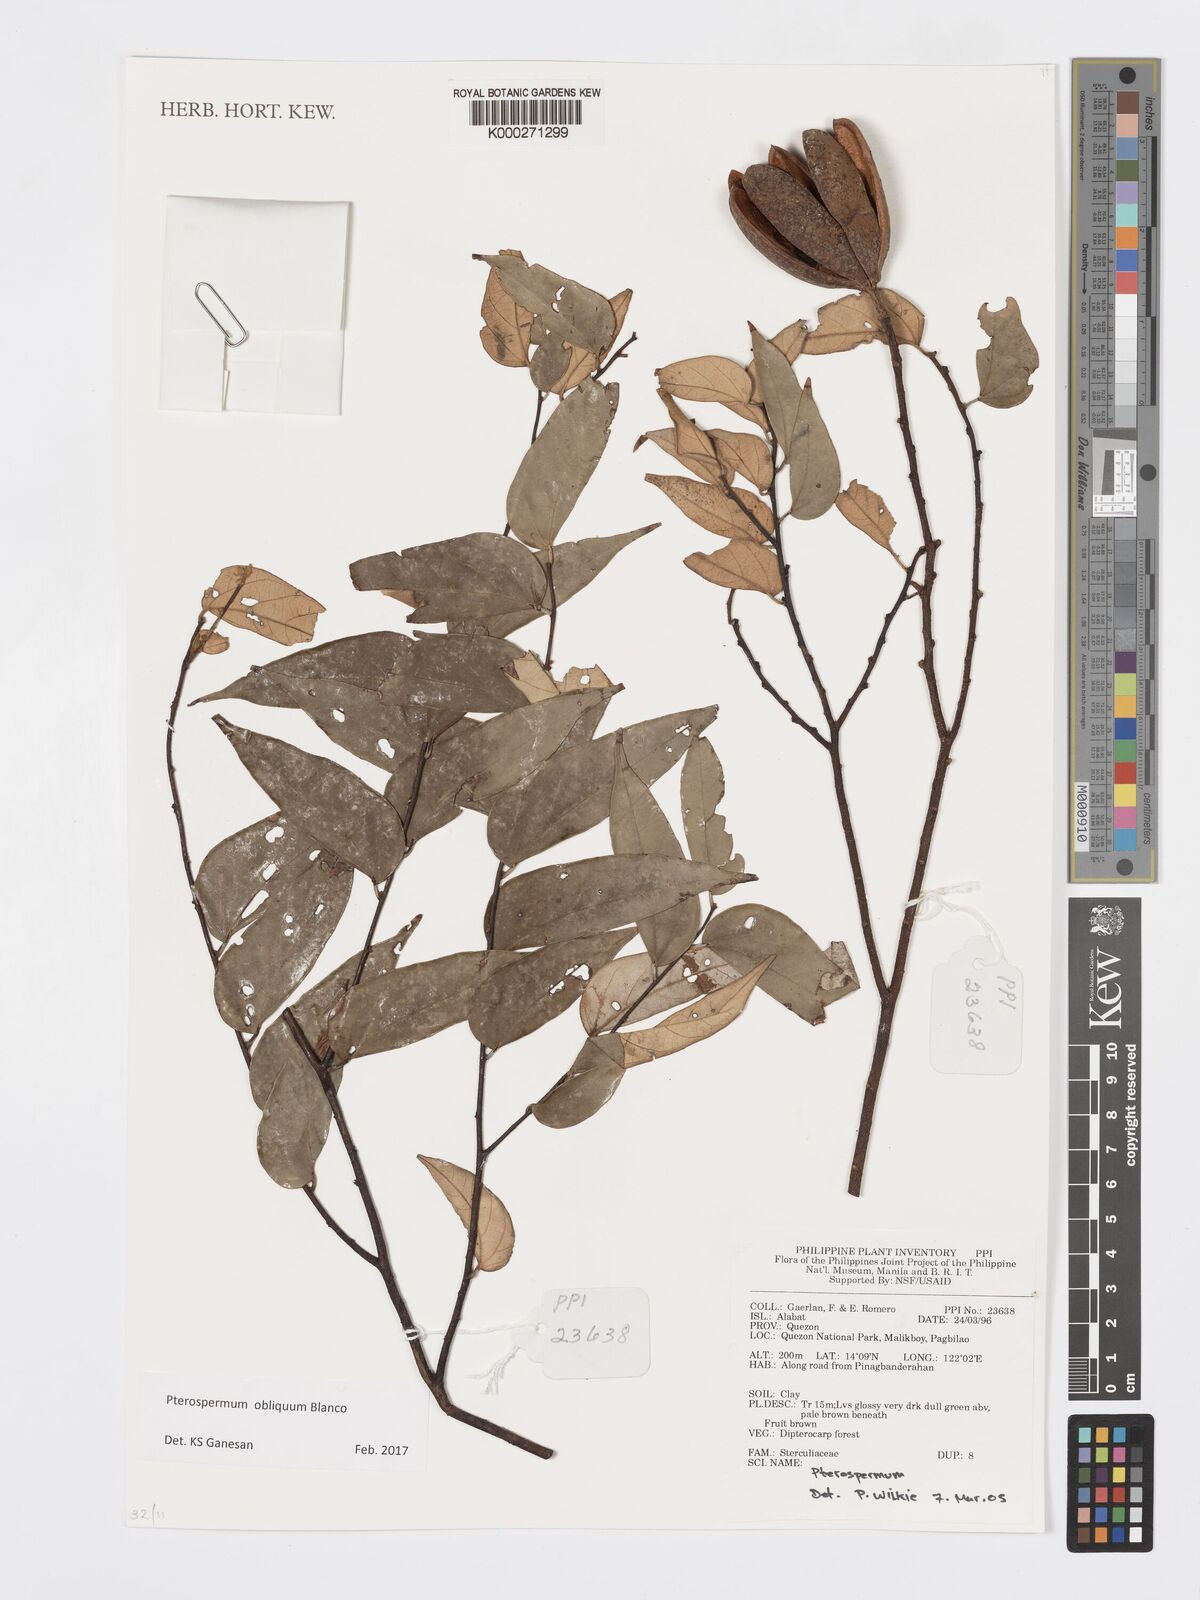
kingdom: Plantae
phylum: Tracheophyta
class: Magnoliopsida
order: Malvales
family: Malvaceae
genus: Pterospermum
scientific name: Pterospermum obliquum
